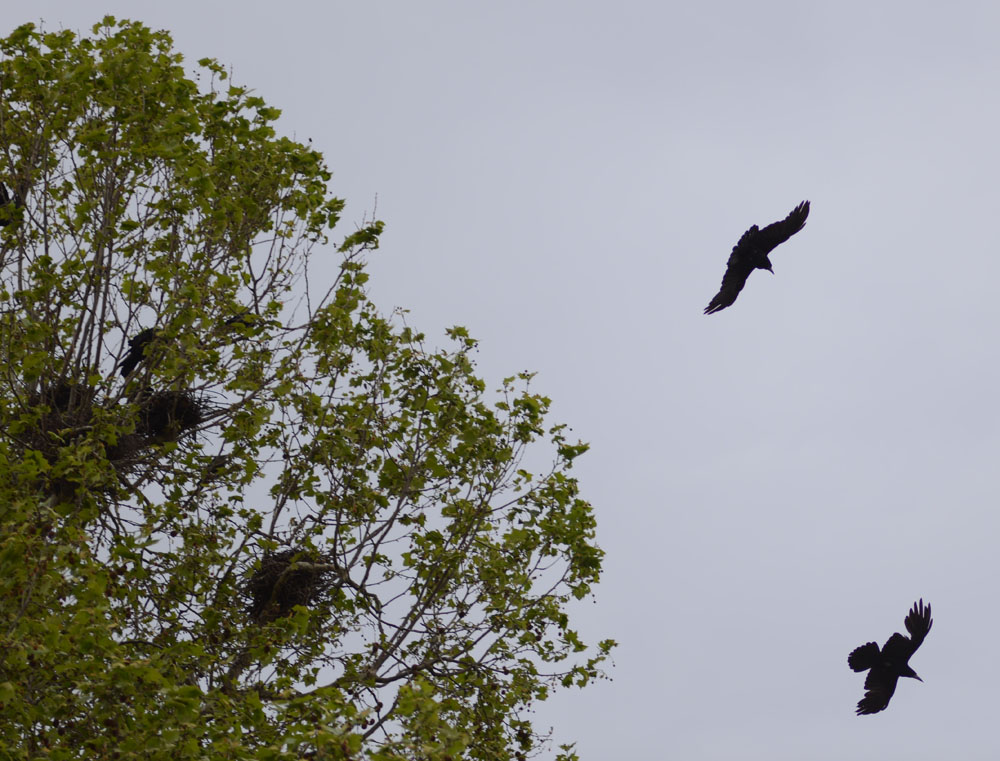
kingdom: Animalia
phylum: Chordata
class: Aves
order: Passeriformes
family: Corvidae
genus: Corvus
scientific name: Corvus frugilegus
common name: Rook
